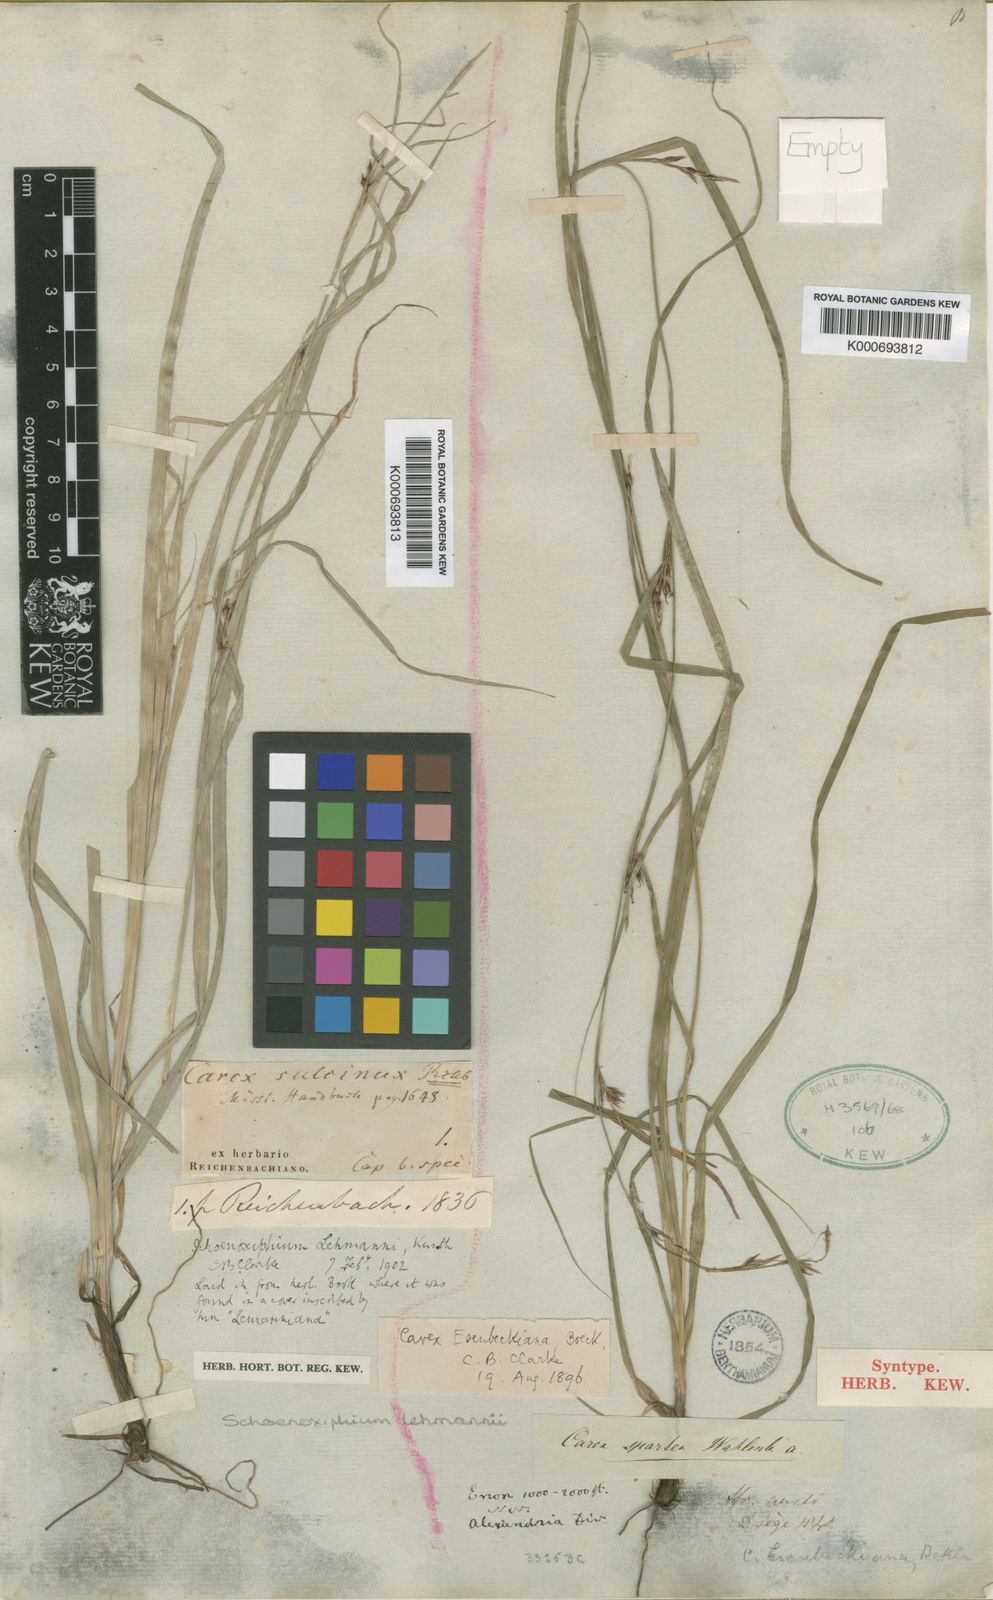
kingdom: Plantae
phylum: Tracheophyta
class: Liliopsida
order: Poales
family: Cyperaceae
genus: Carex
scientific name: Carex uhligii
